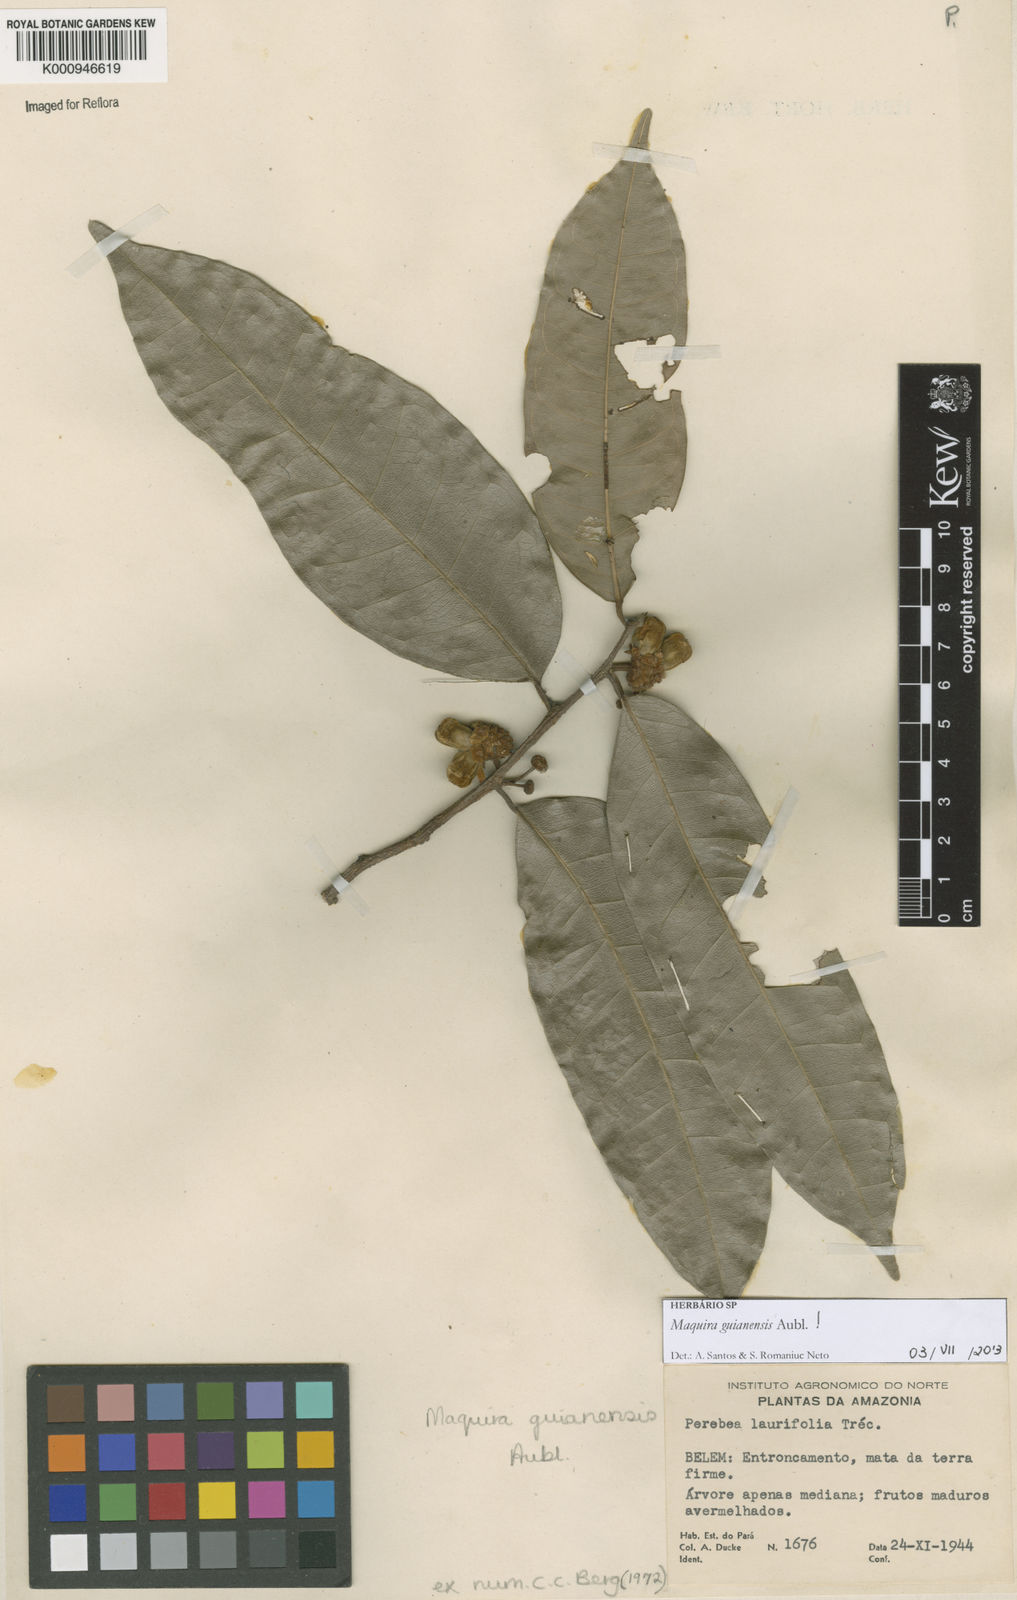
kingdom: Plantae
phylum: Tracheophyta
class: Magnoliopsida
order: Rosales
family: Moraceae
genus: Maquira
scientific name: Maquira guianensis
